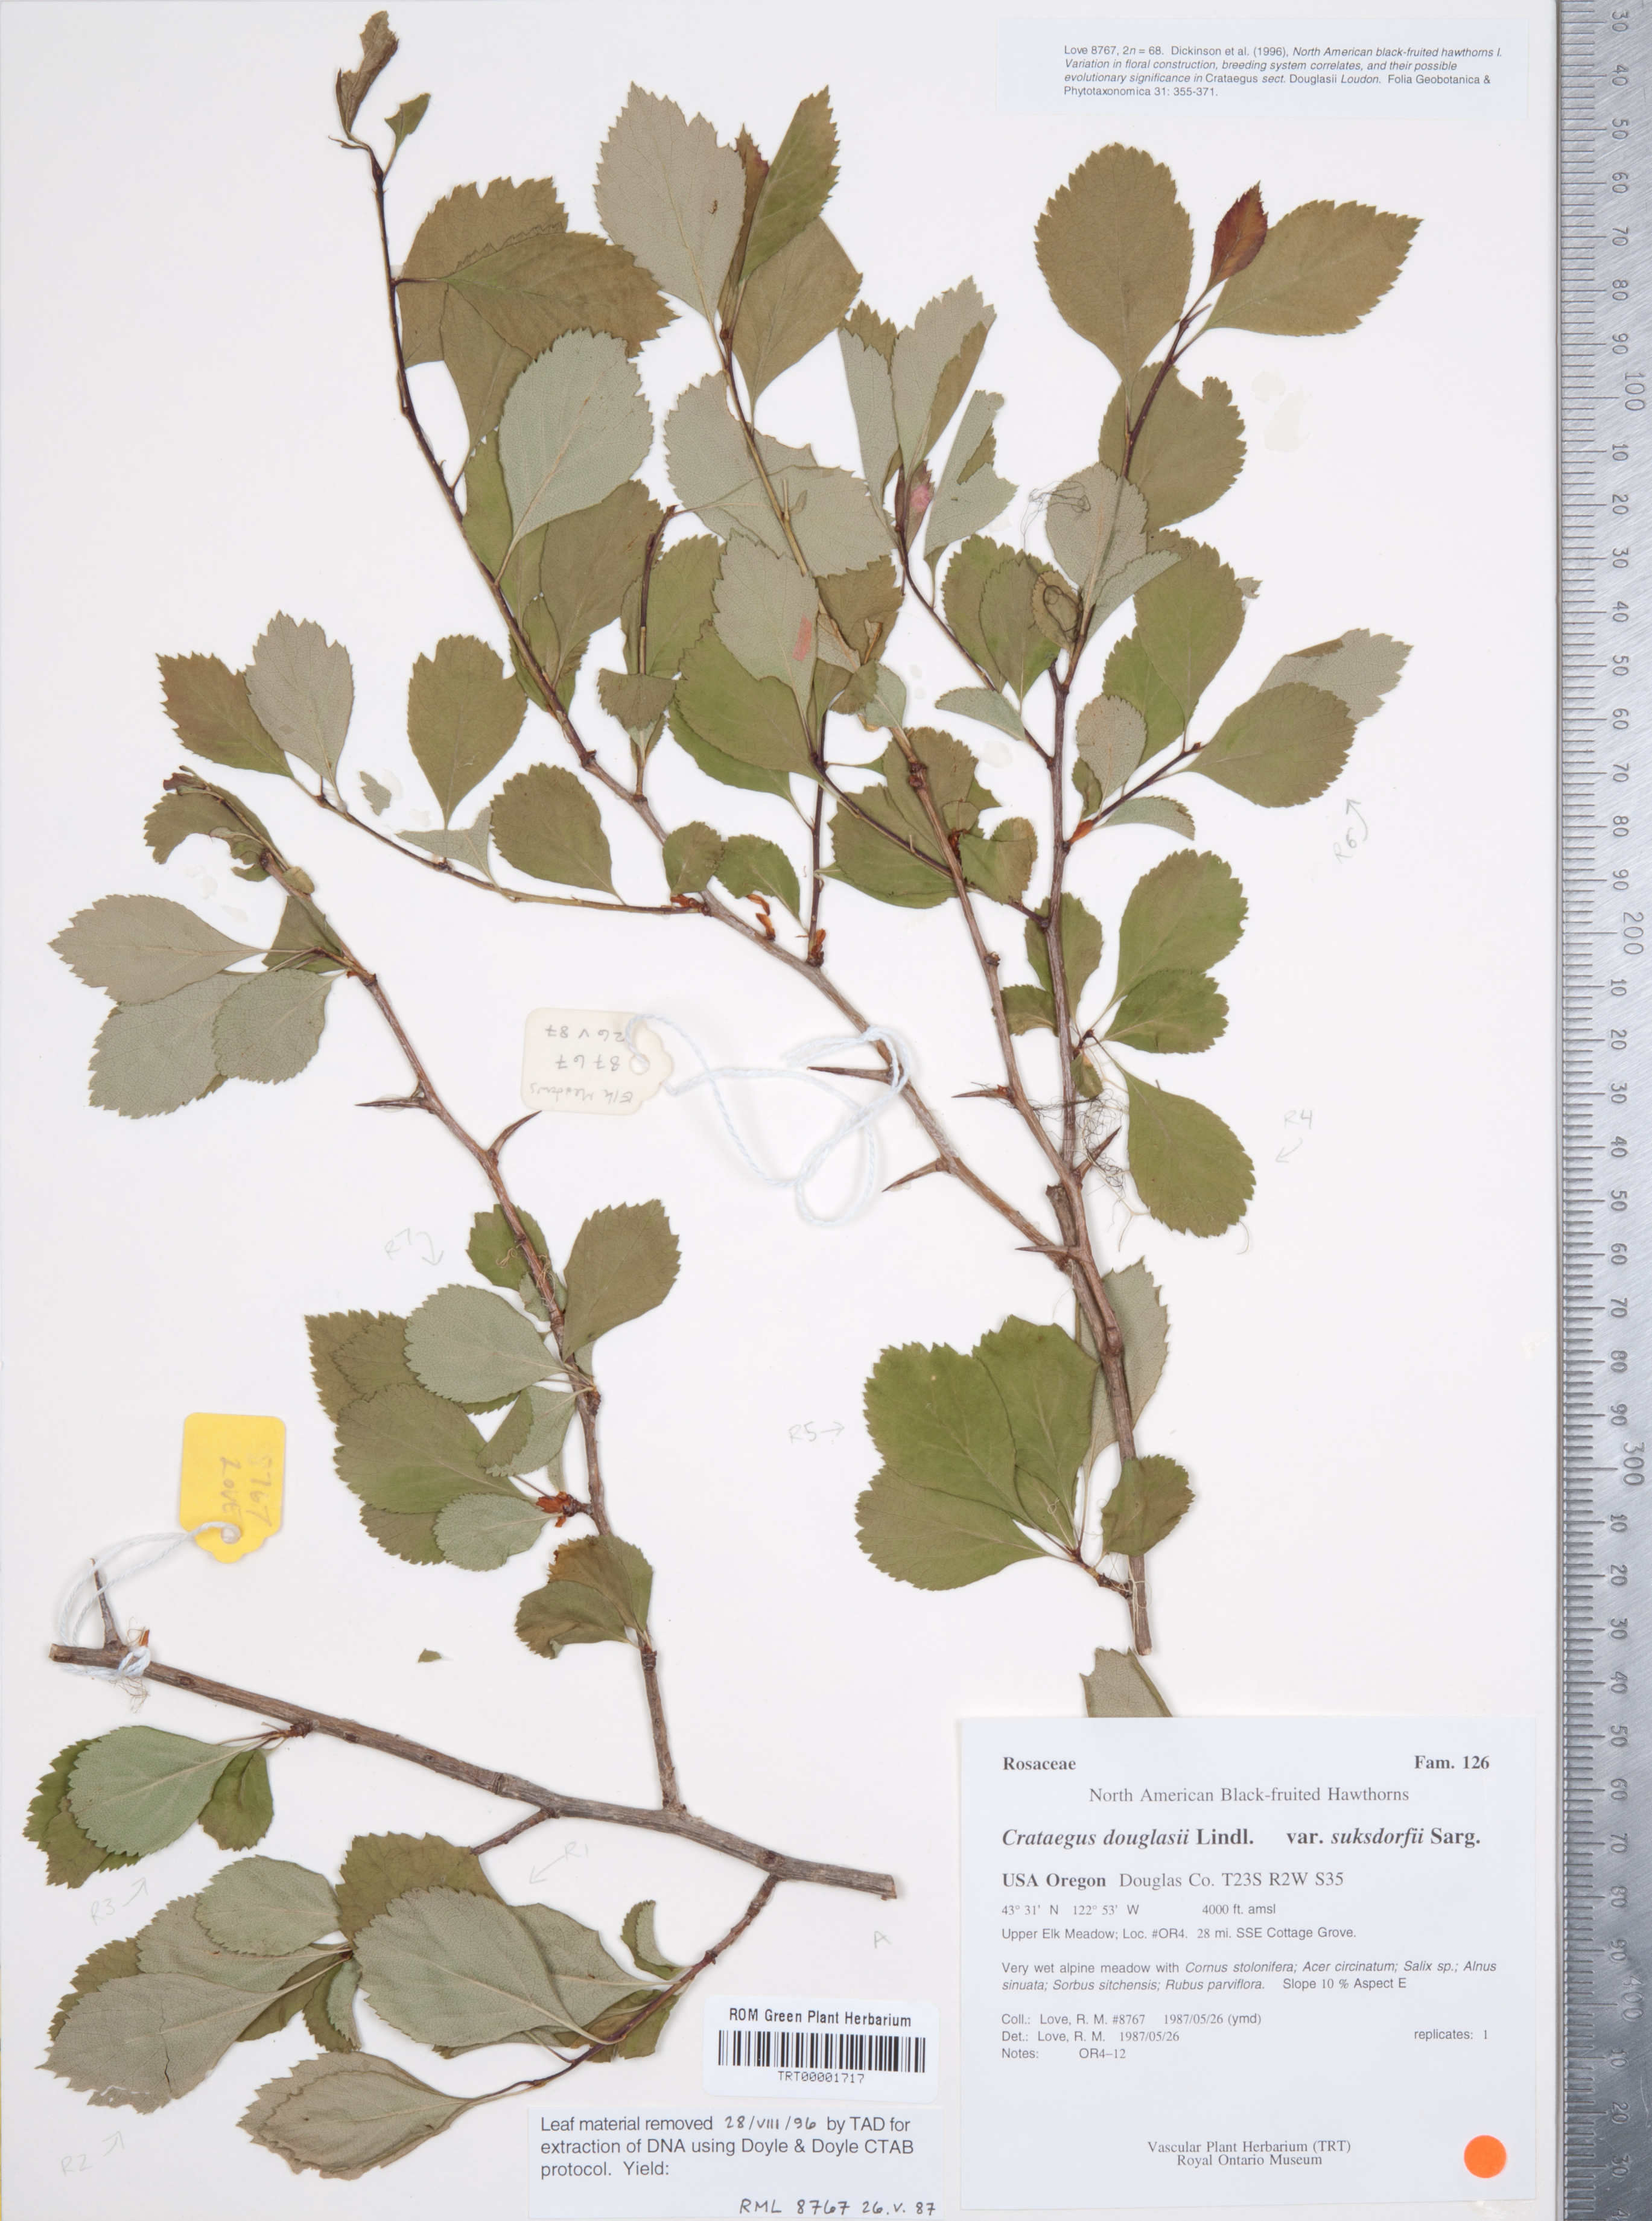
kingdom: Plantae
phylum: Tracheophyta
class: Magnoliopsida
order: Rosales
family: Rosaceae
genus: Crataegus
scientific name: Crataegus gaylussacia
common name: Huckleberry hawthorn
